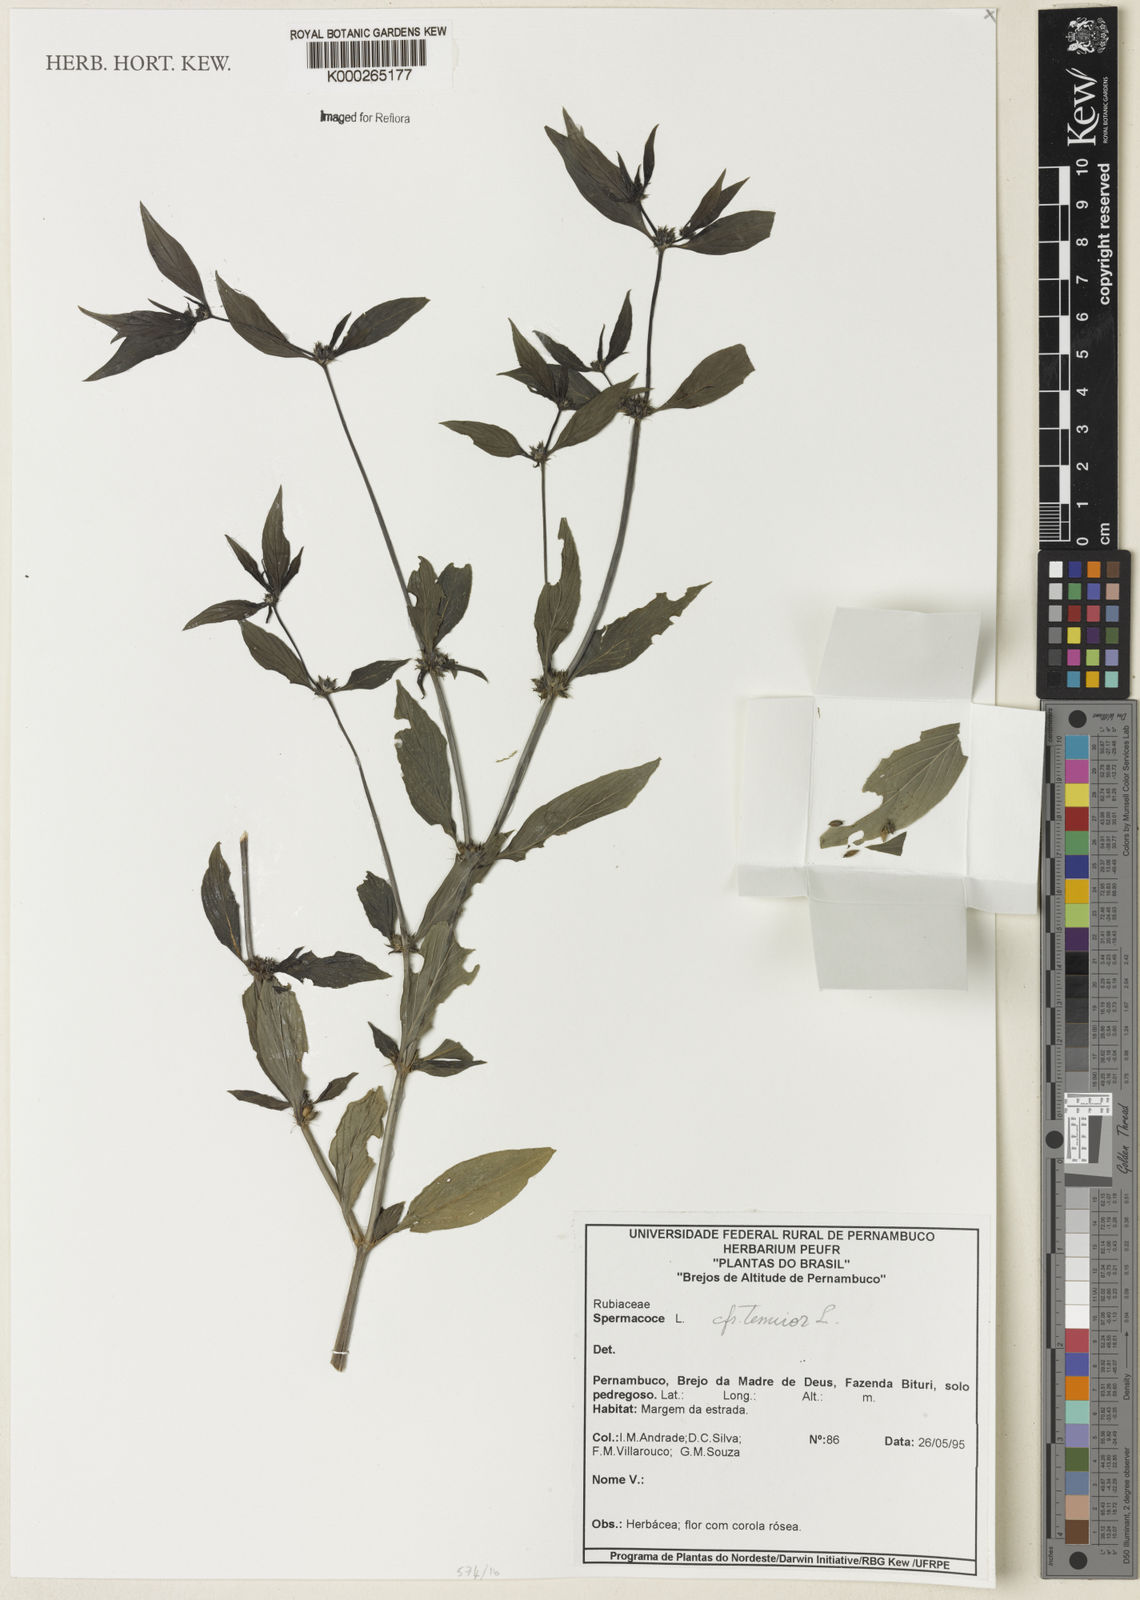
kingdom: Plantae
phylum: Tracheophyta
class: Magnoliopsida
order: Gentianales
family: Rubiaceae
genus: Spermacoce
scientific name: Spermacoce tenuior
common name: River false buttonweed
